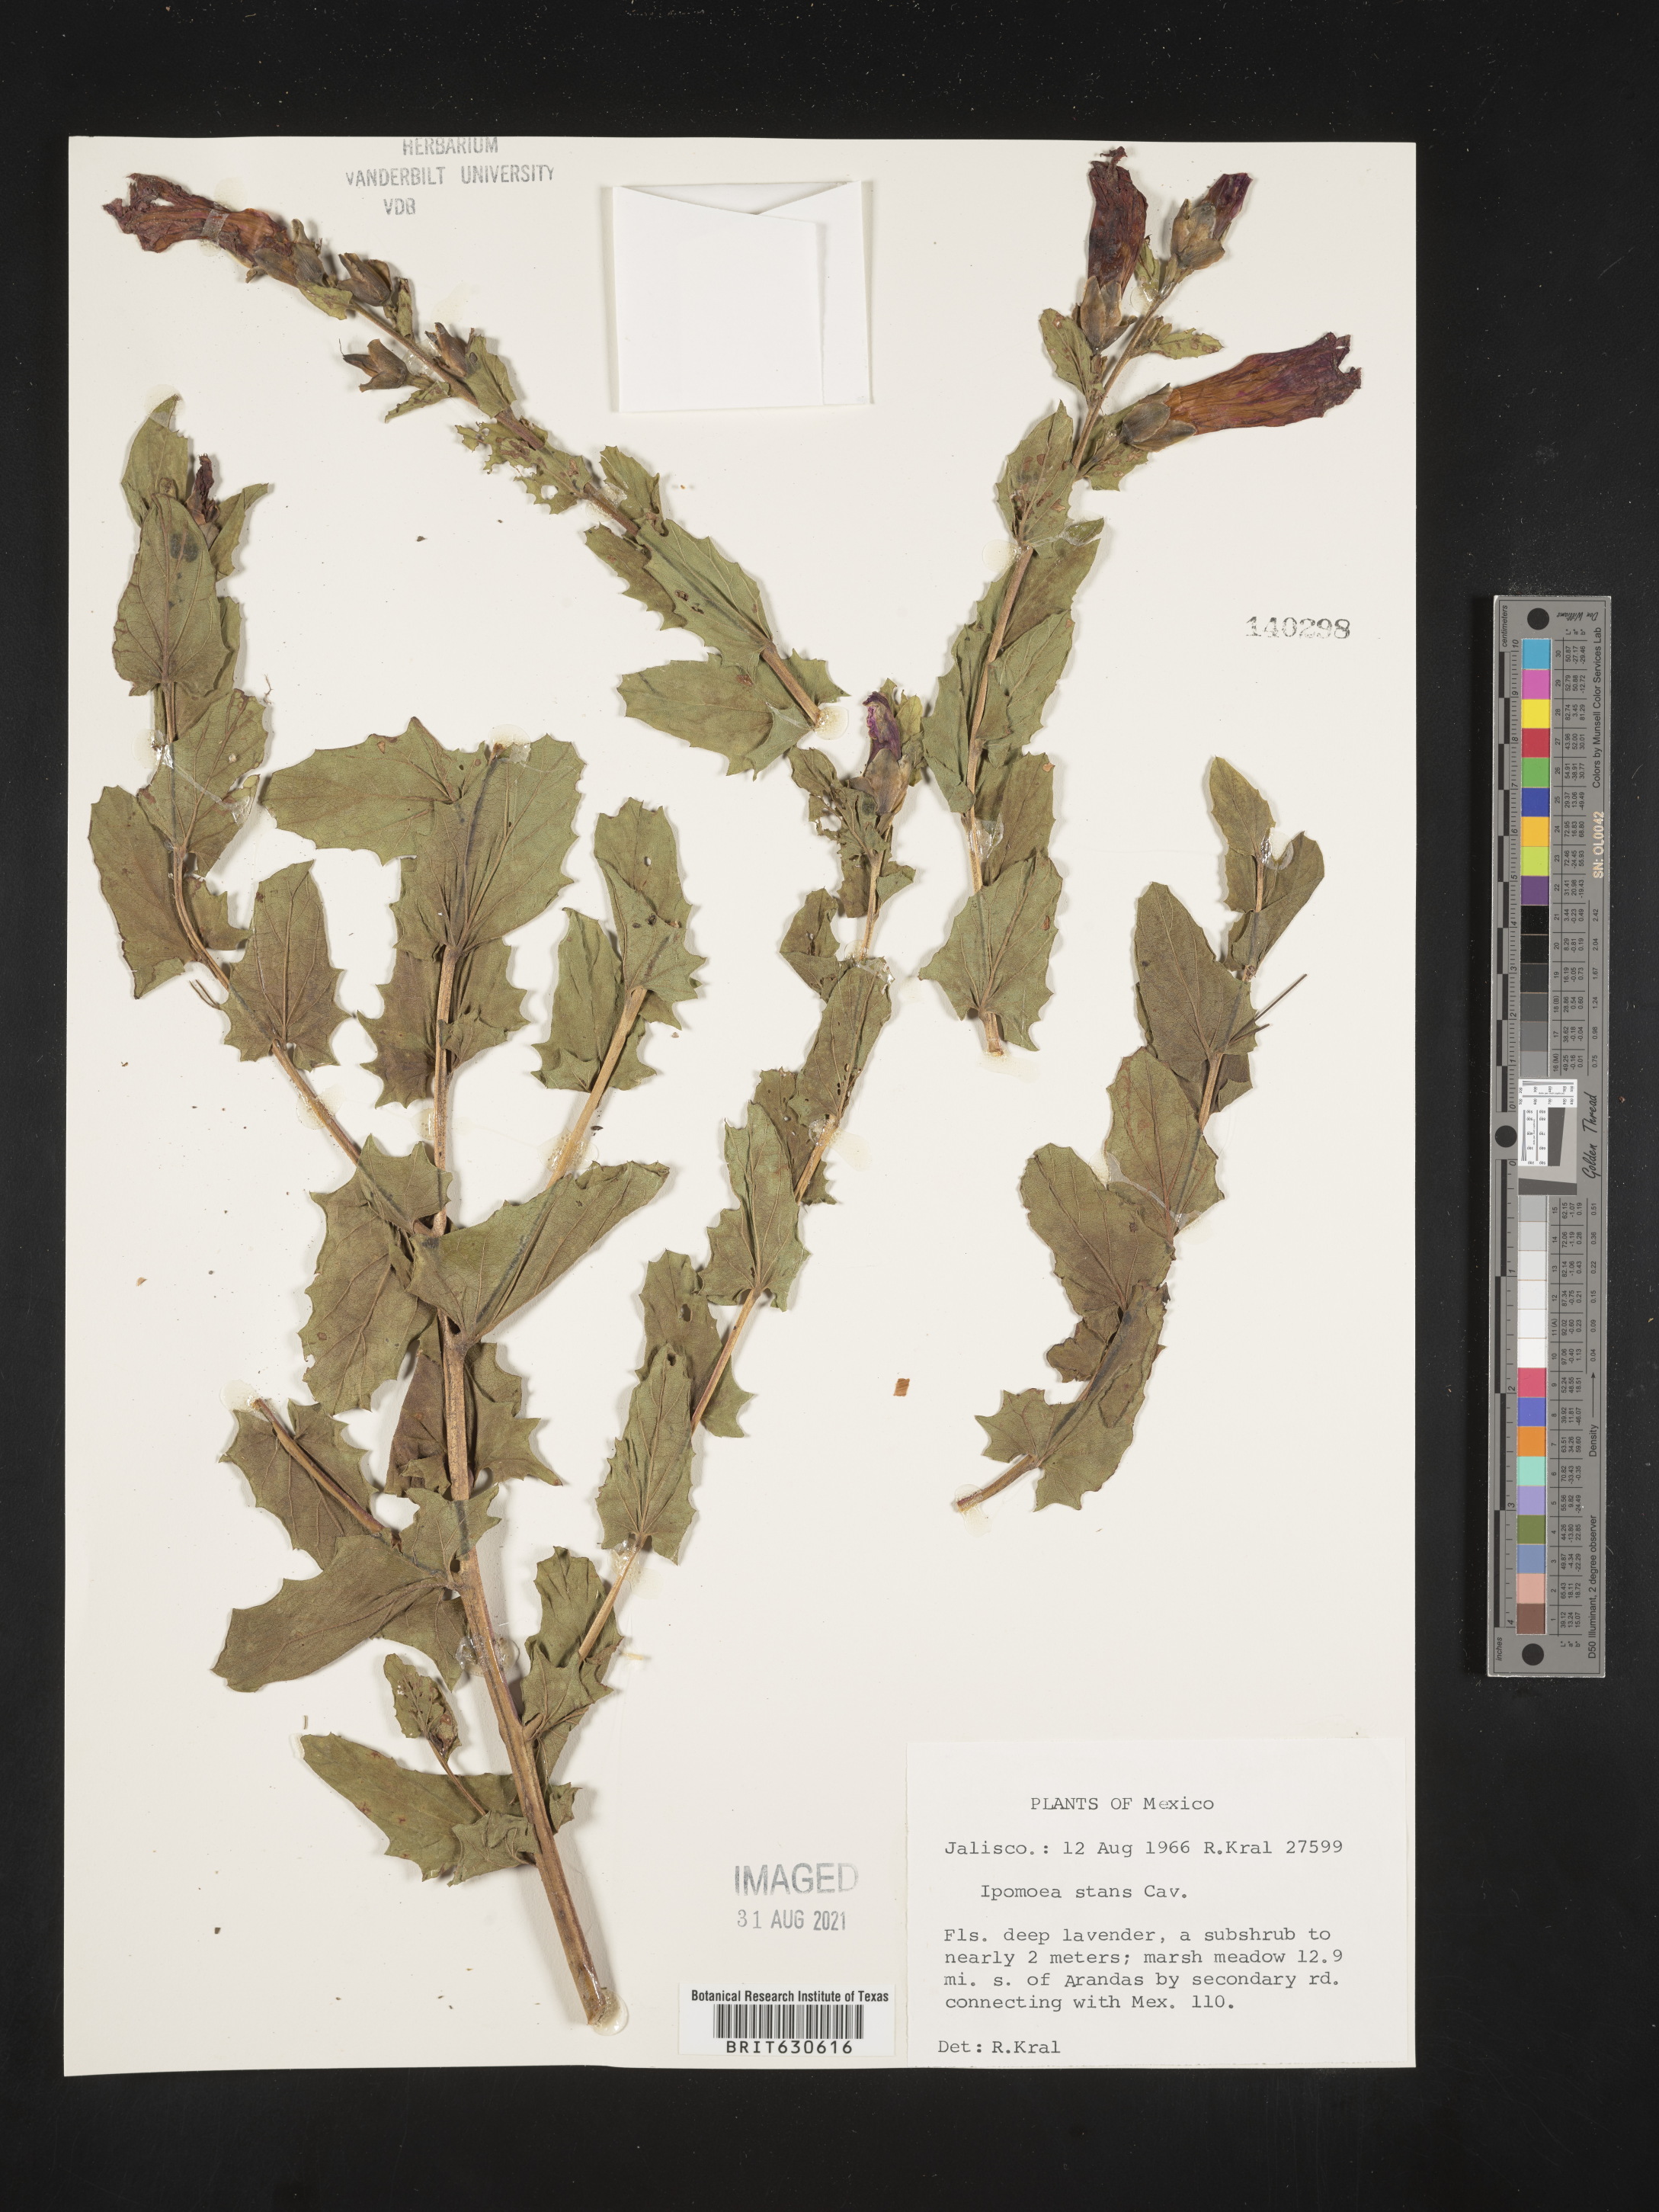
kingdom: Plantae
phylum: Tracheophyta
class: Magnoliopsida
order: Solanales
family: Convolvulaceae
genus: Ipomoea
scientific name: Ipomoea
